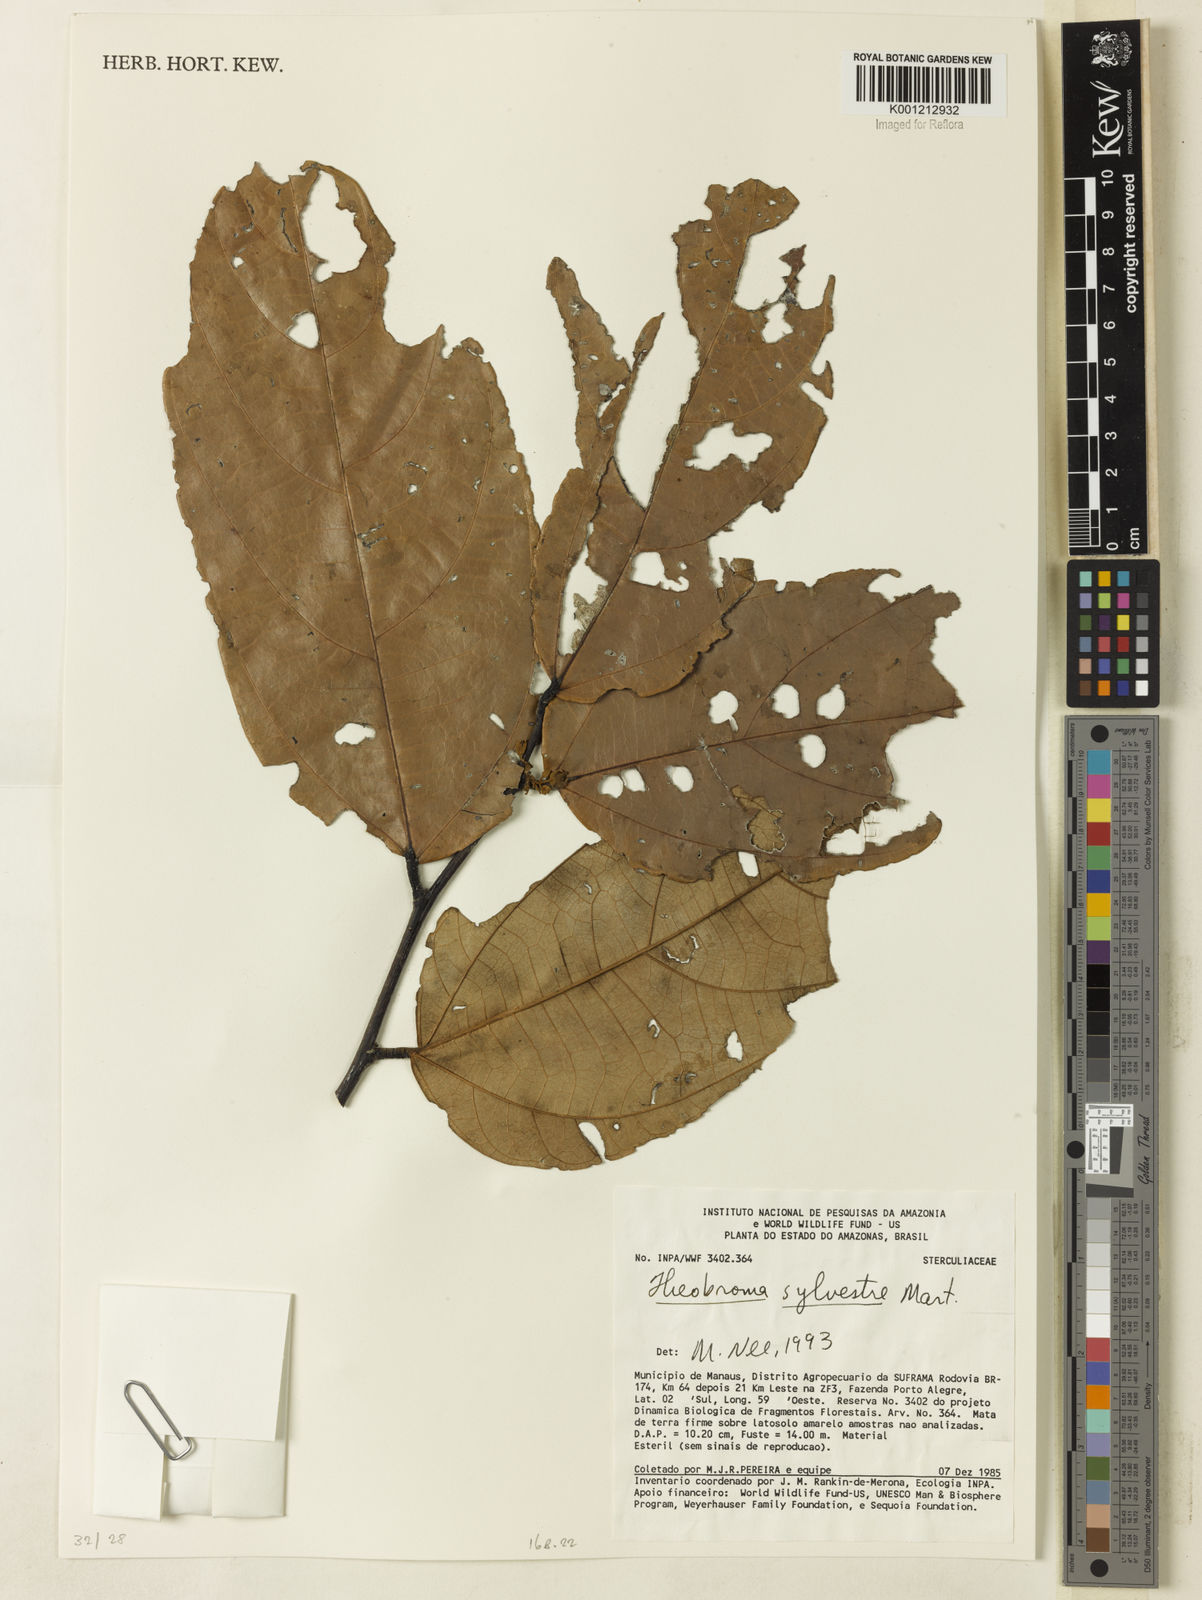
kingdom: Plantae
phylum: Tracheophyta
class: Magnoliopsida
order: Malvales
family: Malvaceae
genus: Theobroma
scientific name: Theobroma sylvestre
